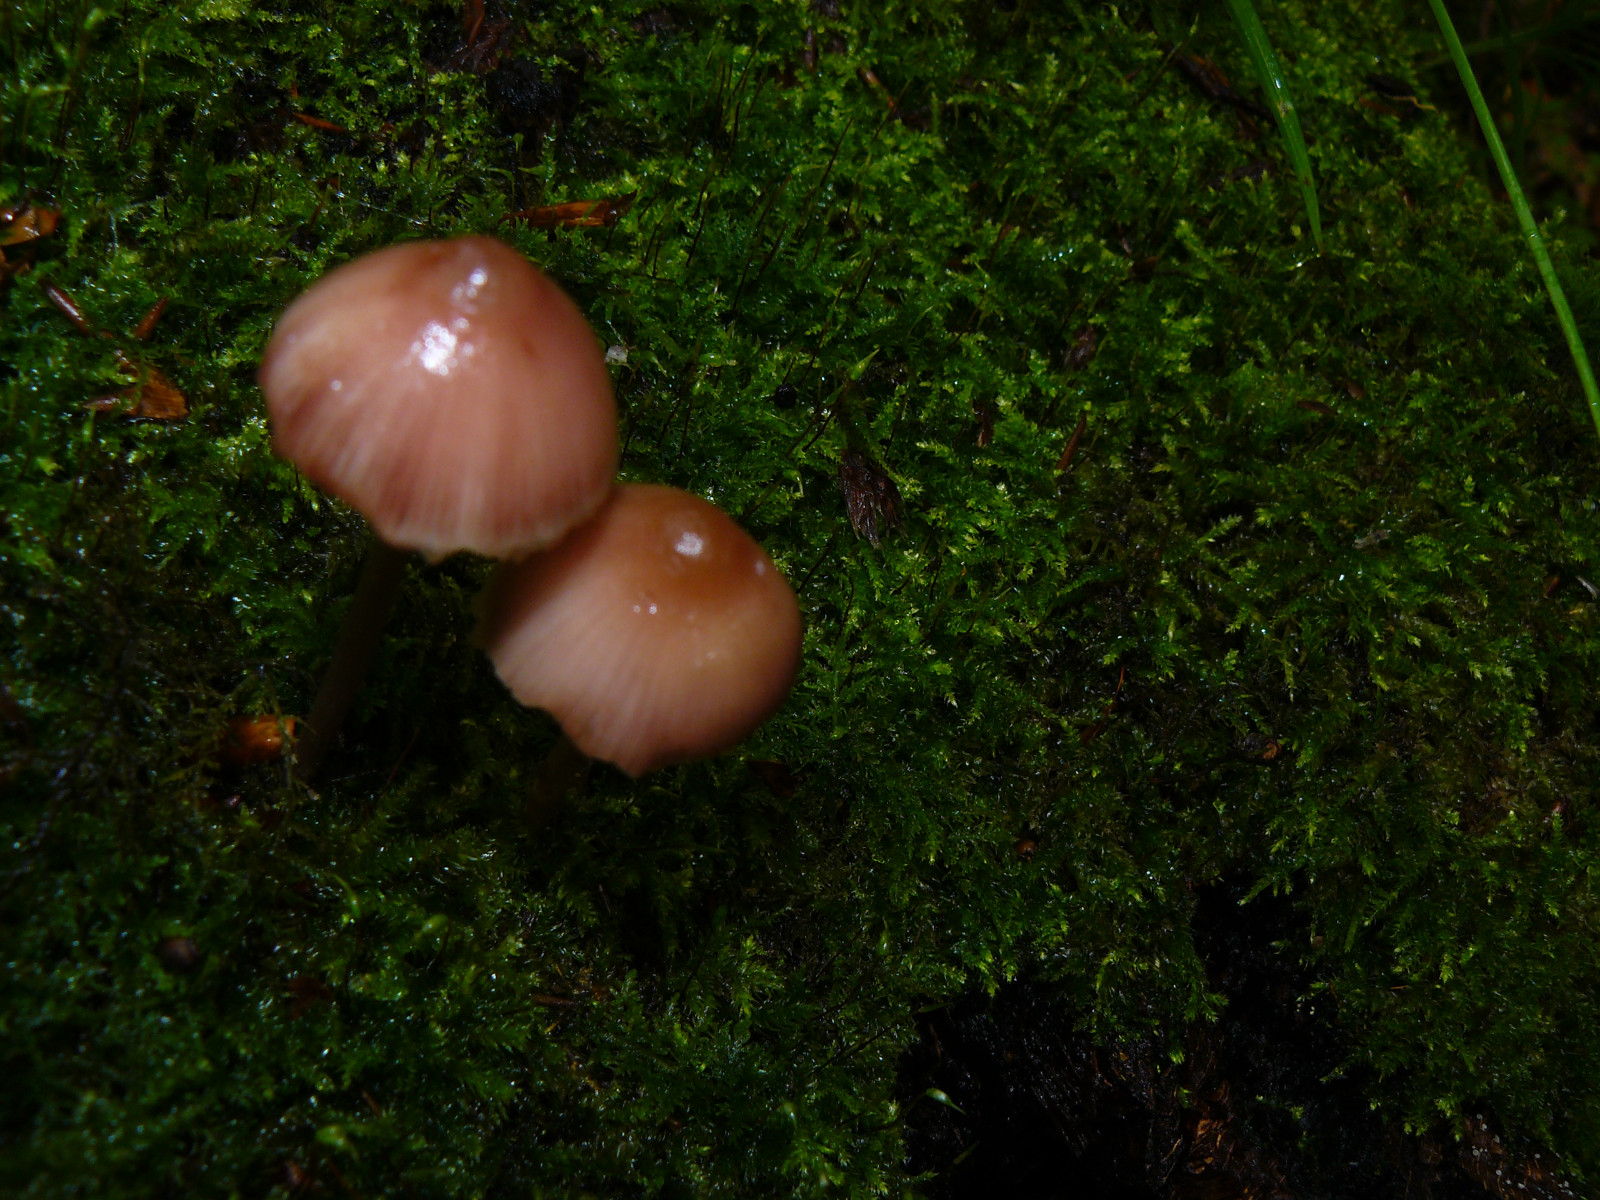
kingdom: Fungi
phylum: Basidiomycota
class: Agaricomycetes
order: Agaricales
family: Mycenaceae
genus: Mycena
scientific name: Mycena haematopus
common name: blødende huesvamp
